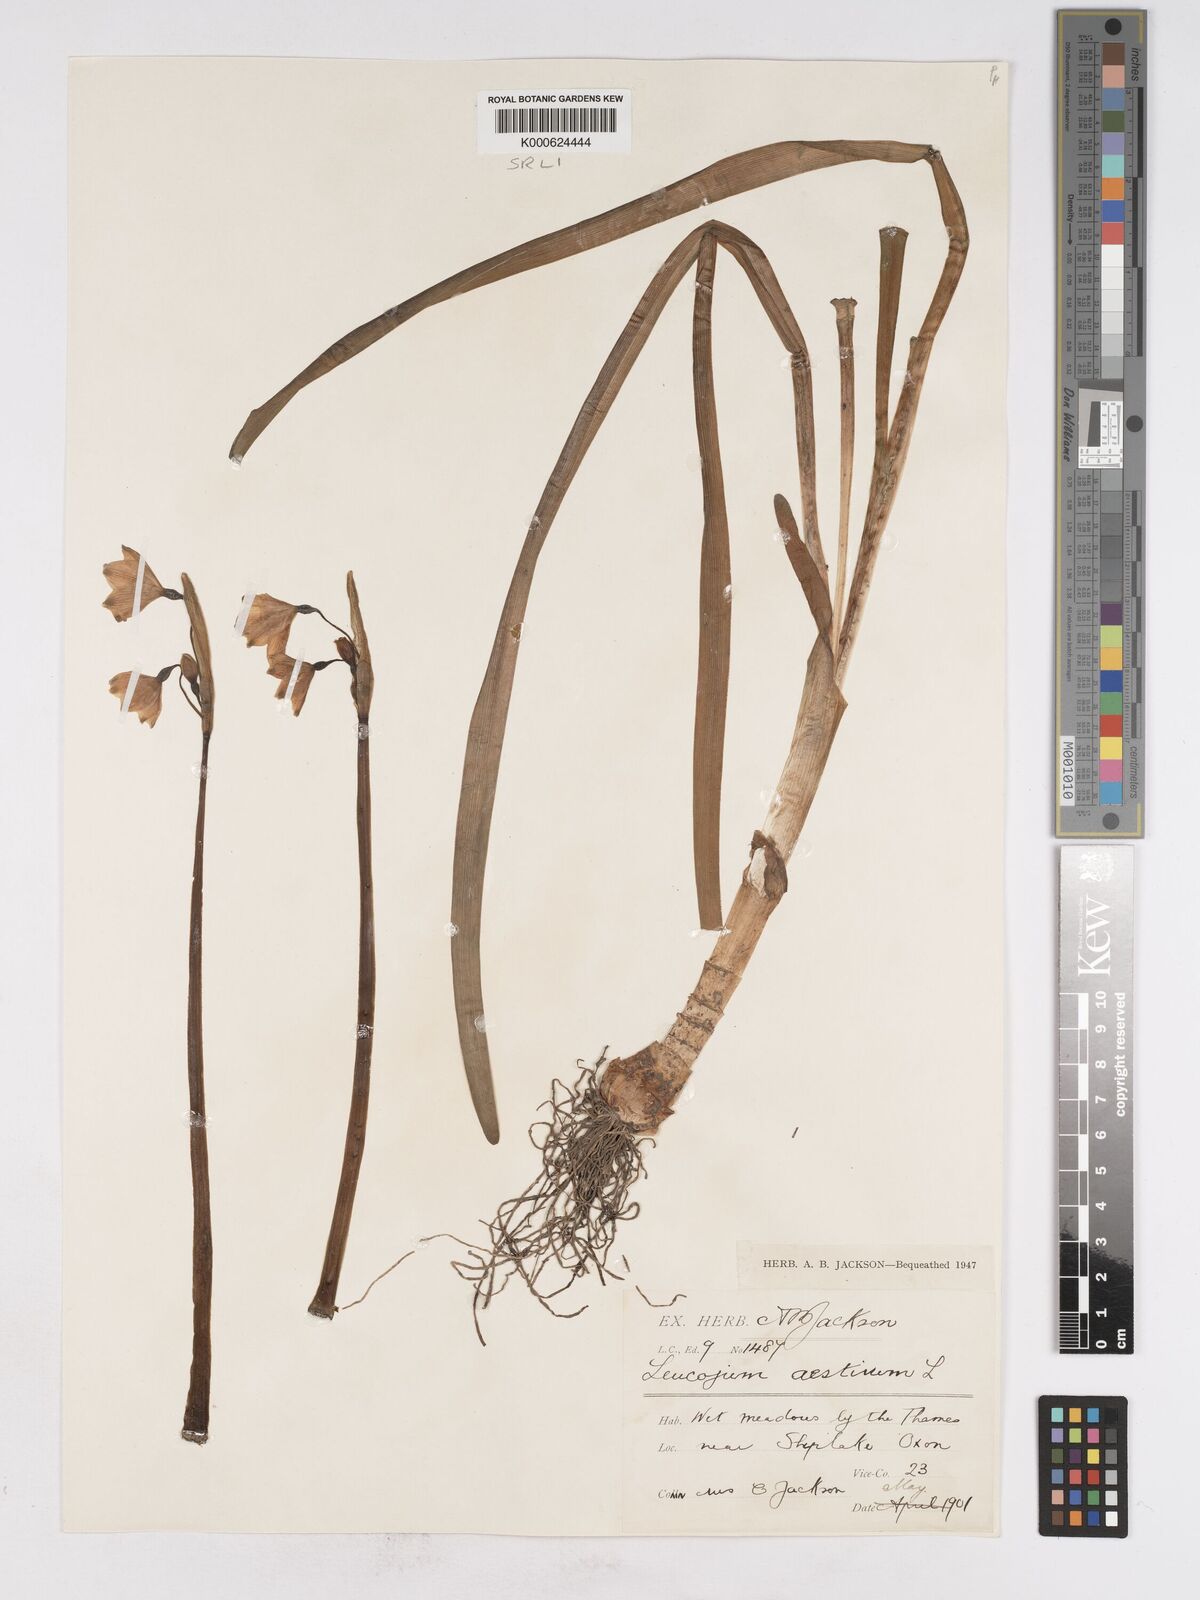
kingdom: Plantae
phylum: Tracheophyta
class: Liliopsida
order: Asparagales
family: Amaryllidaceae
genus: Leucojum
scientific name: Leucojum aestivum
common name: Summer snowflake
